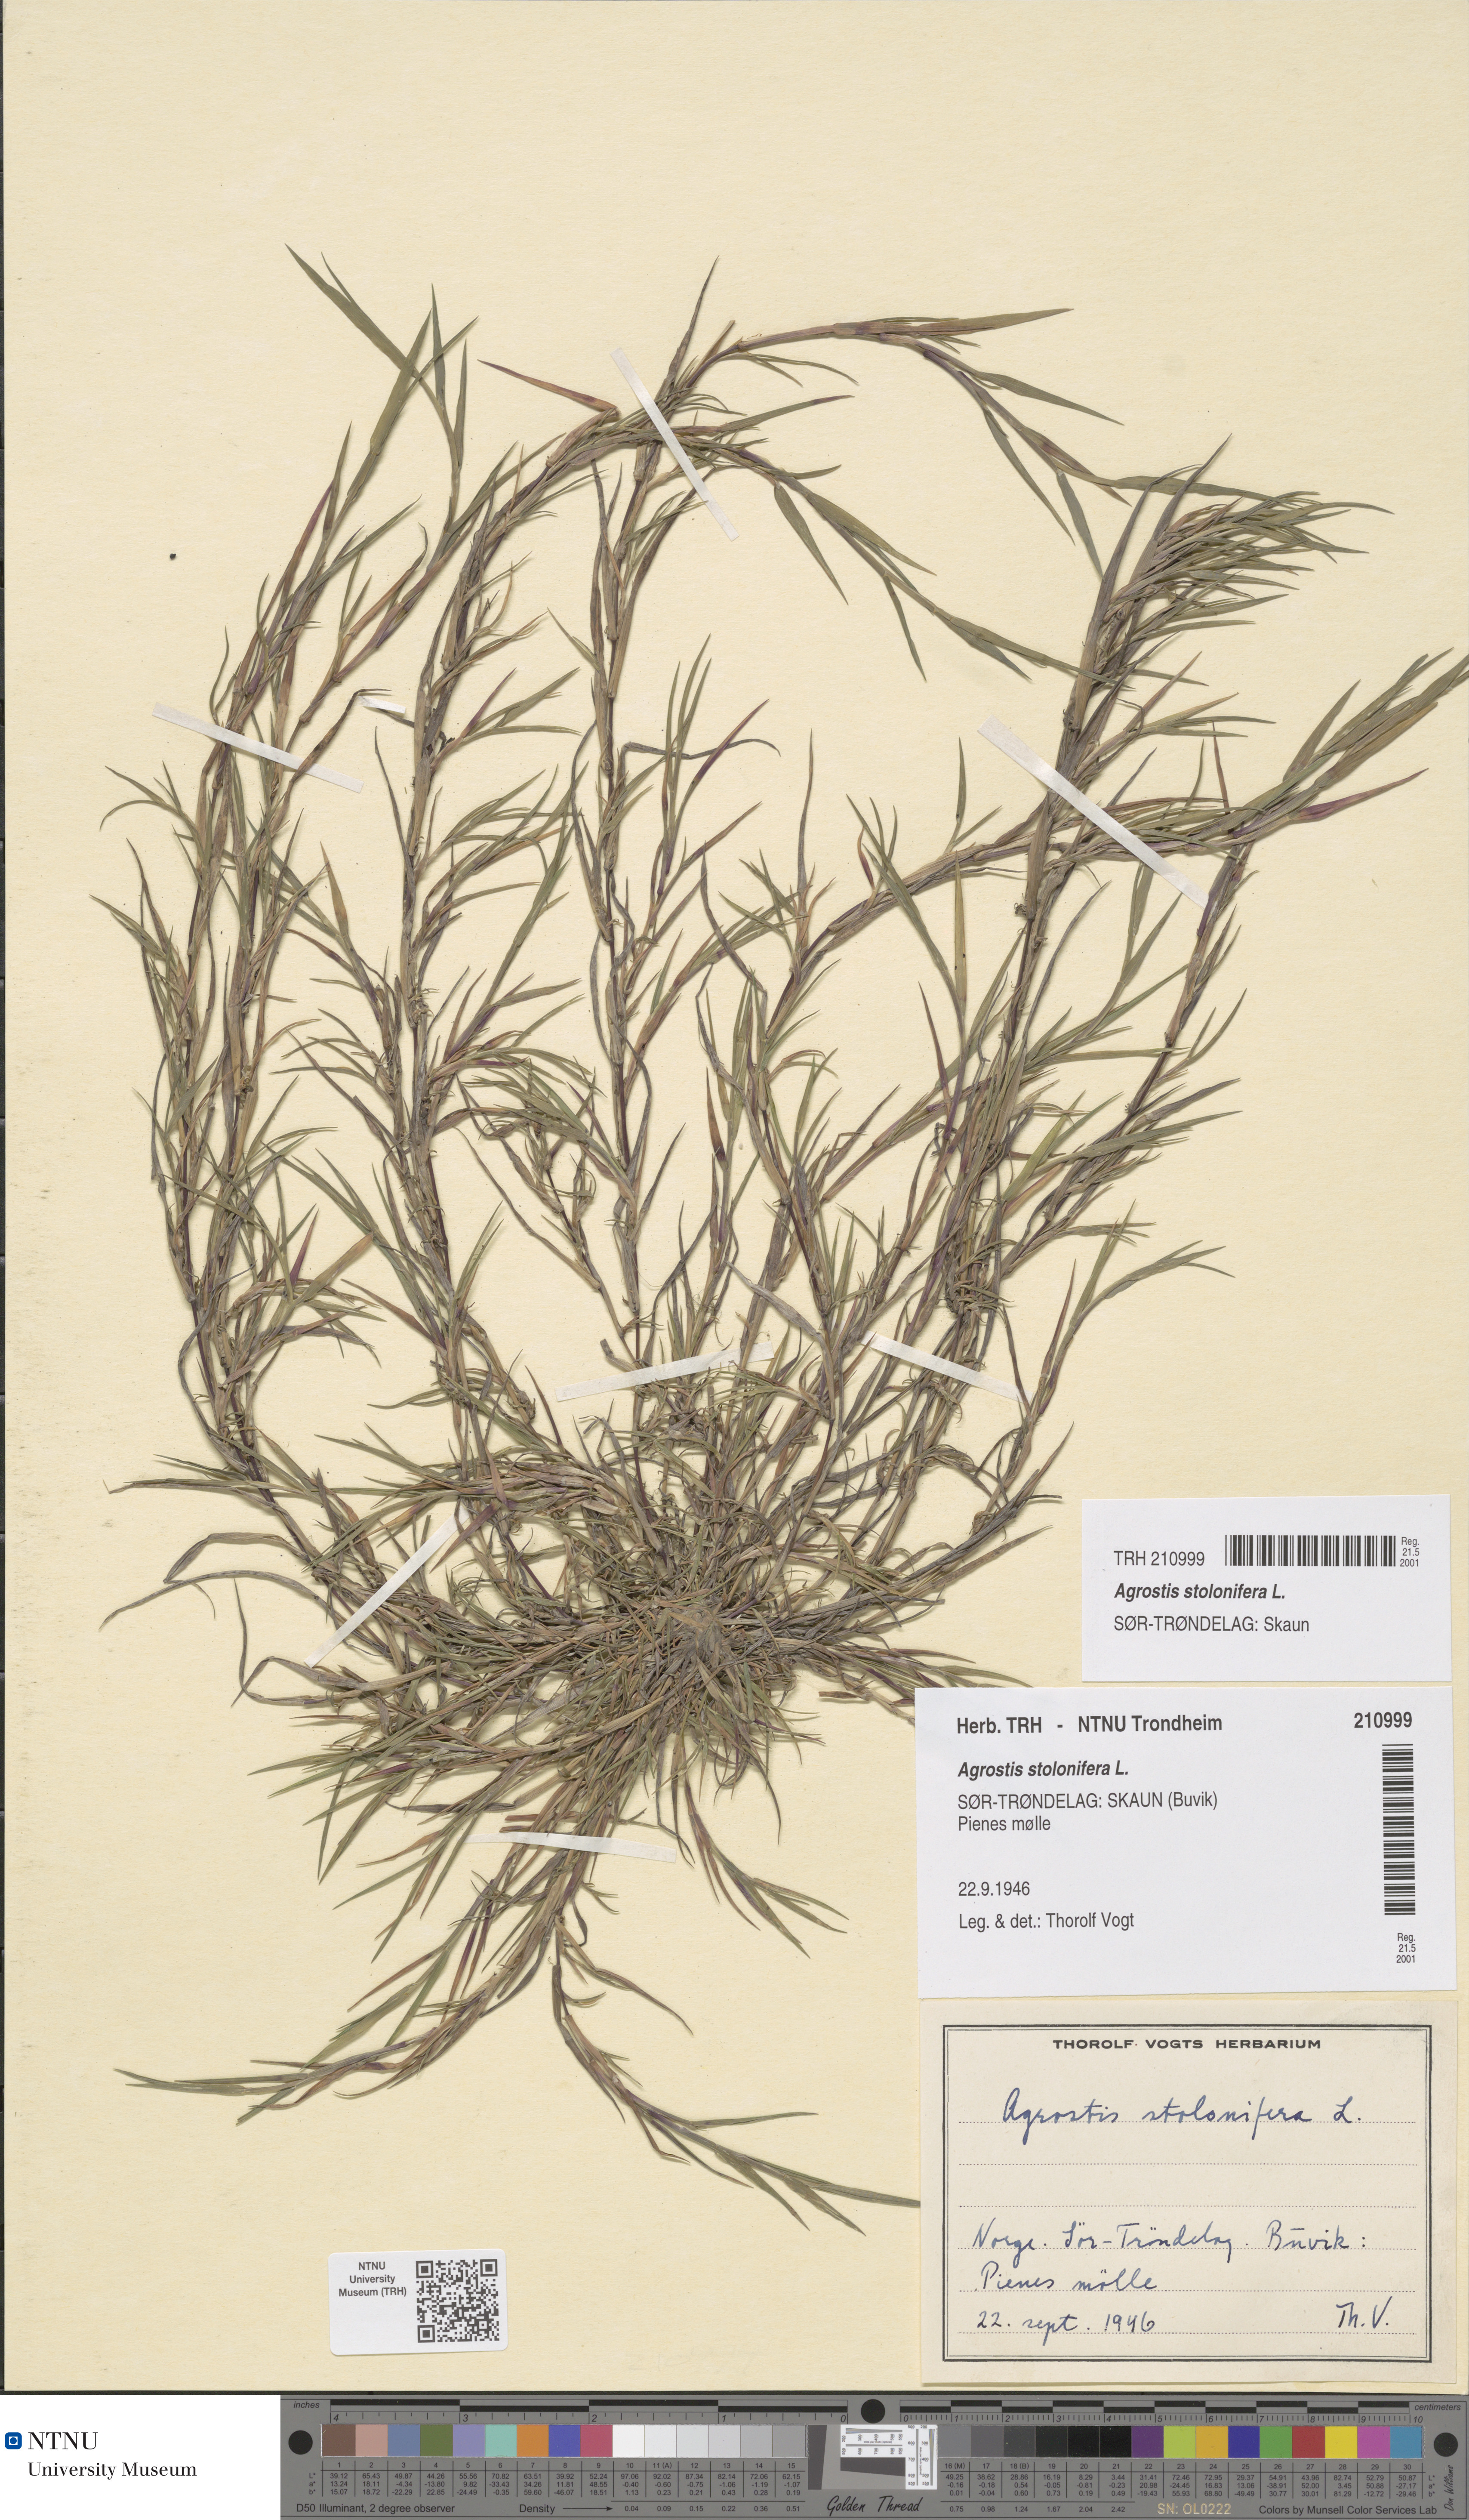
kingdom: Plantae
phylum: Tracheophyta
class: Liliopsida
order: Poales
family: Poaceae
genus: Agrostis
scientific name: Agrostis stolonifera
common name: Creeping bentgrass
